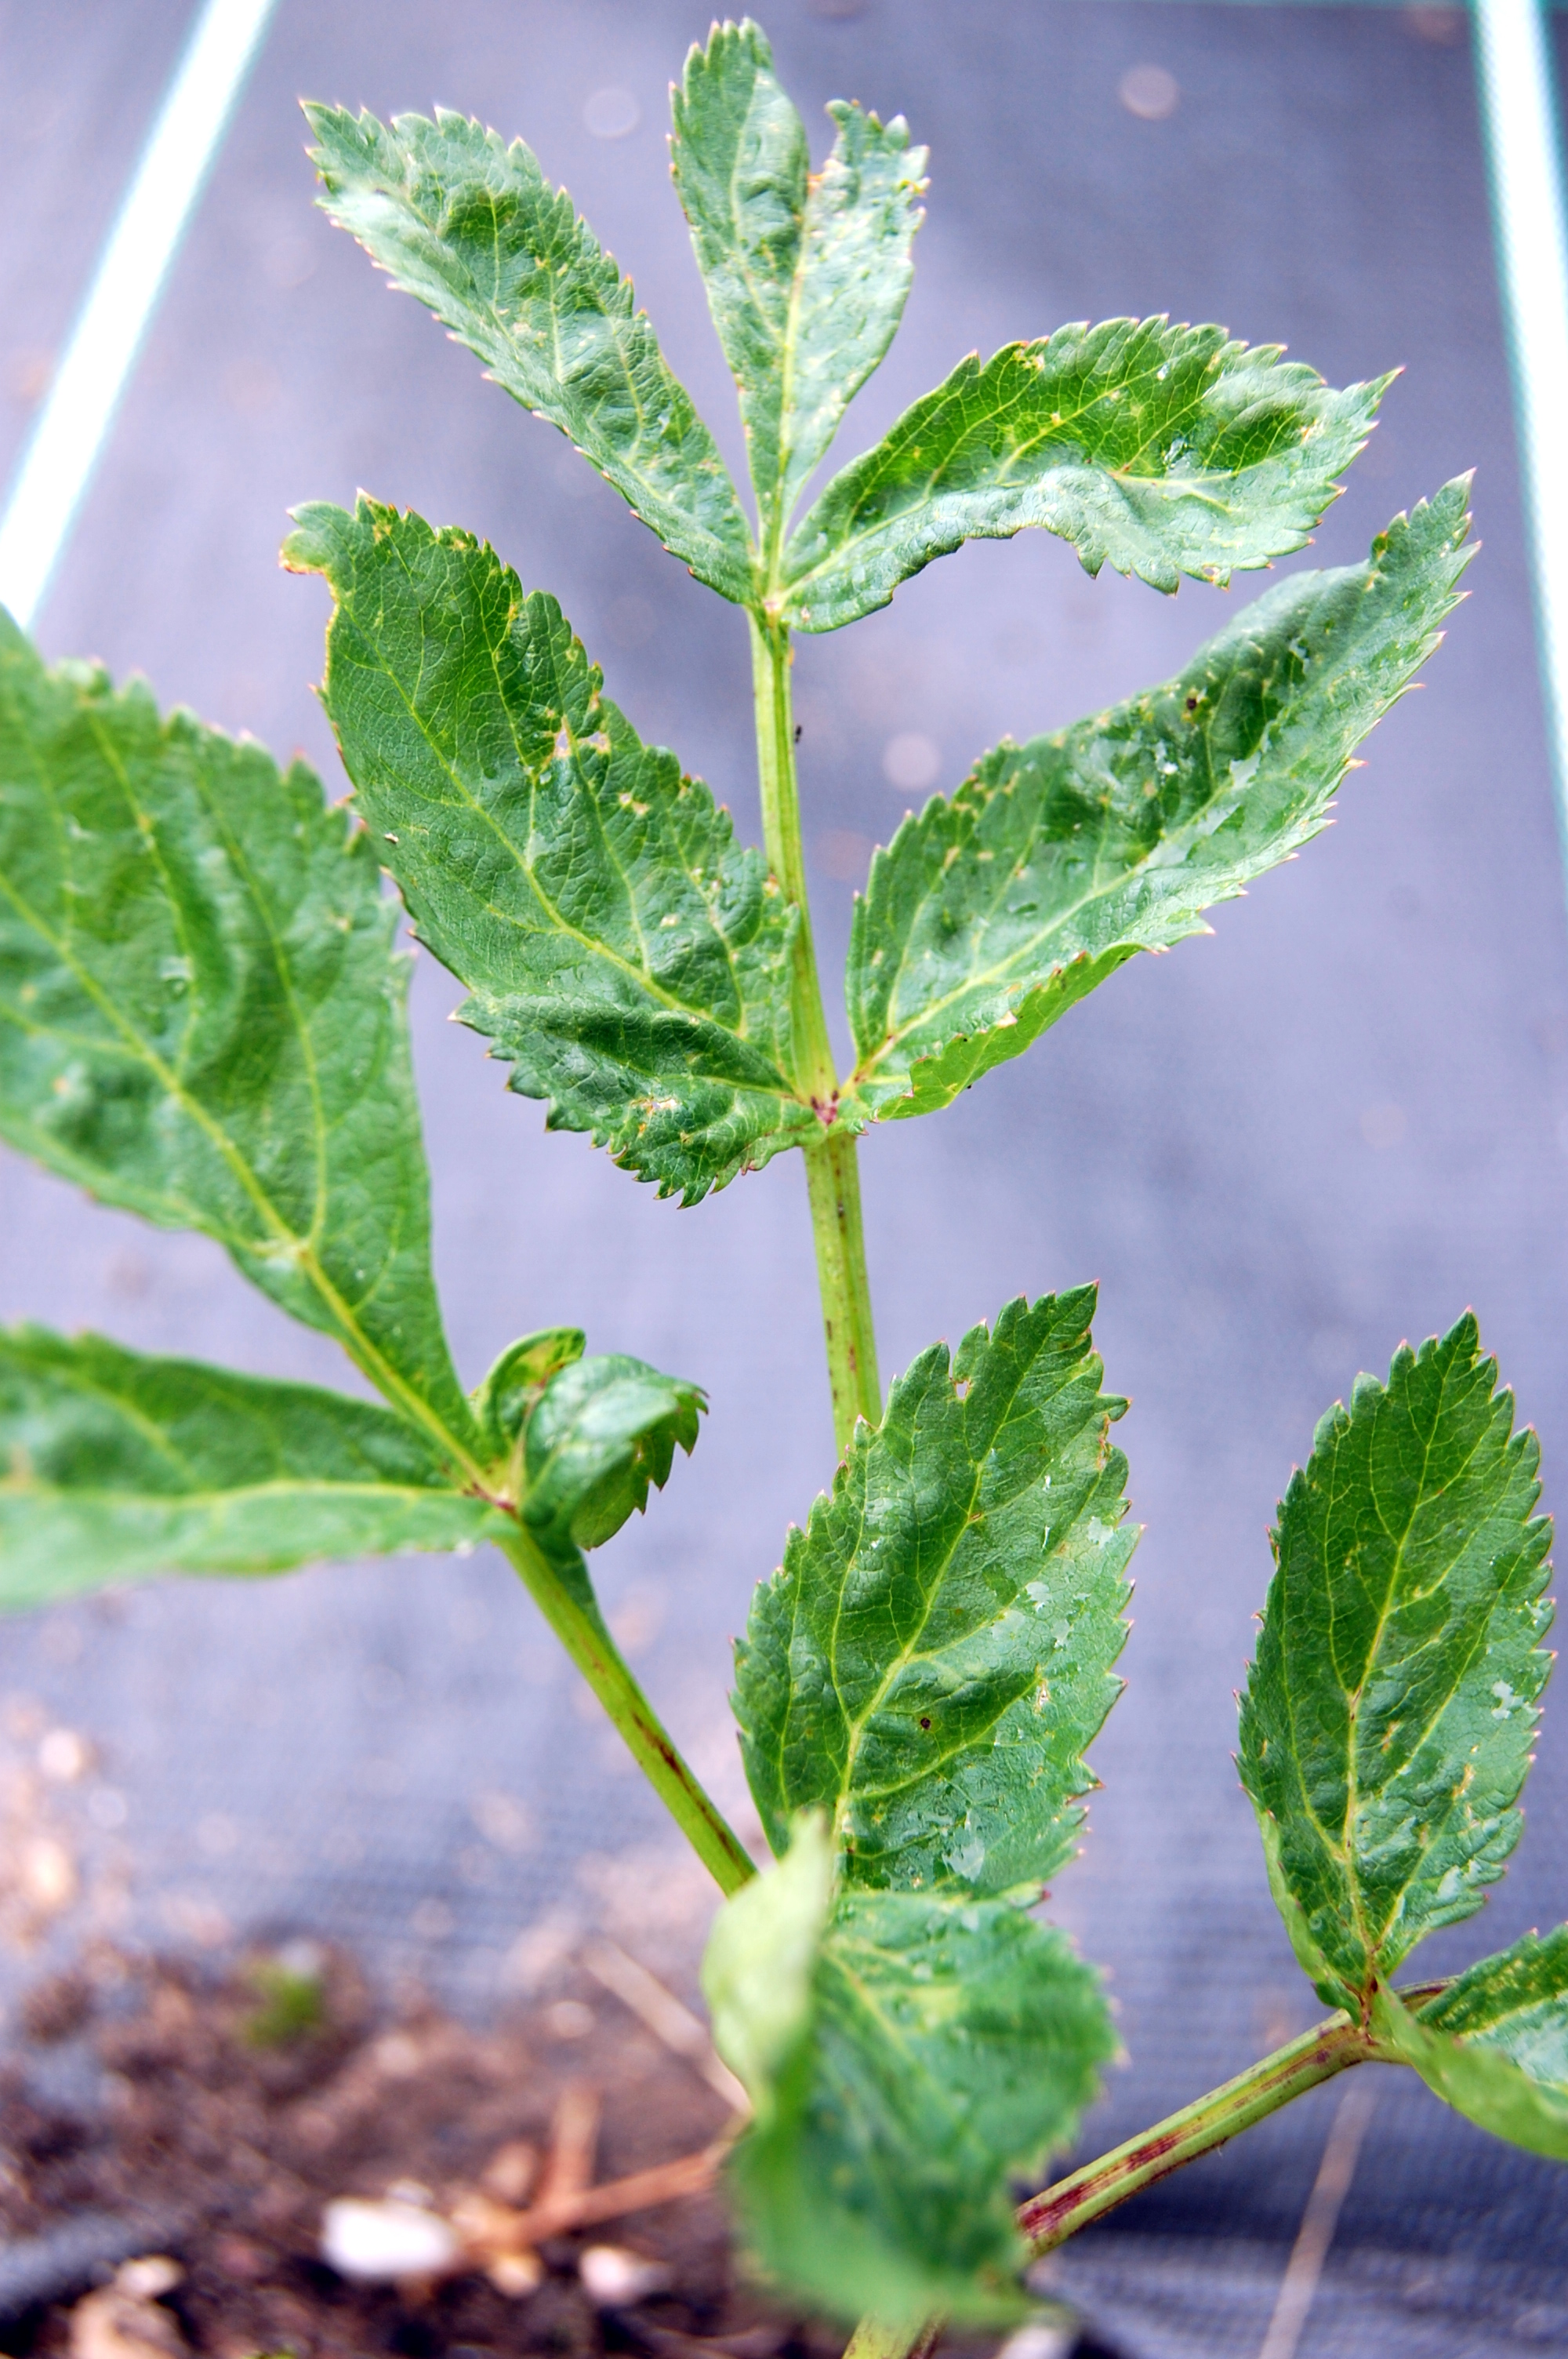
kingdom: Plantae
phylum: Tracheophyta
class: Magnoliopsida
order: Apiales
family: Apiaceae
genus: Angelica
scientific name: Angelica archangelica
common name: Garden angelica
